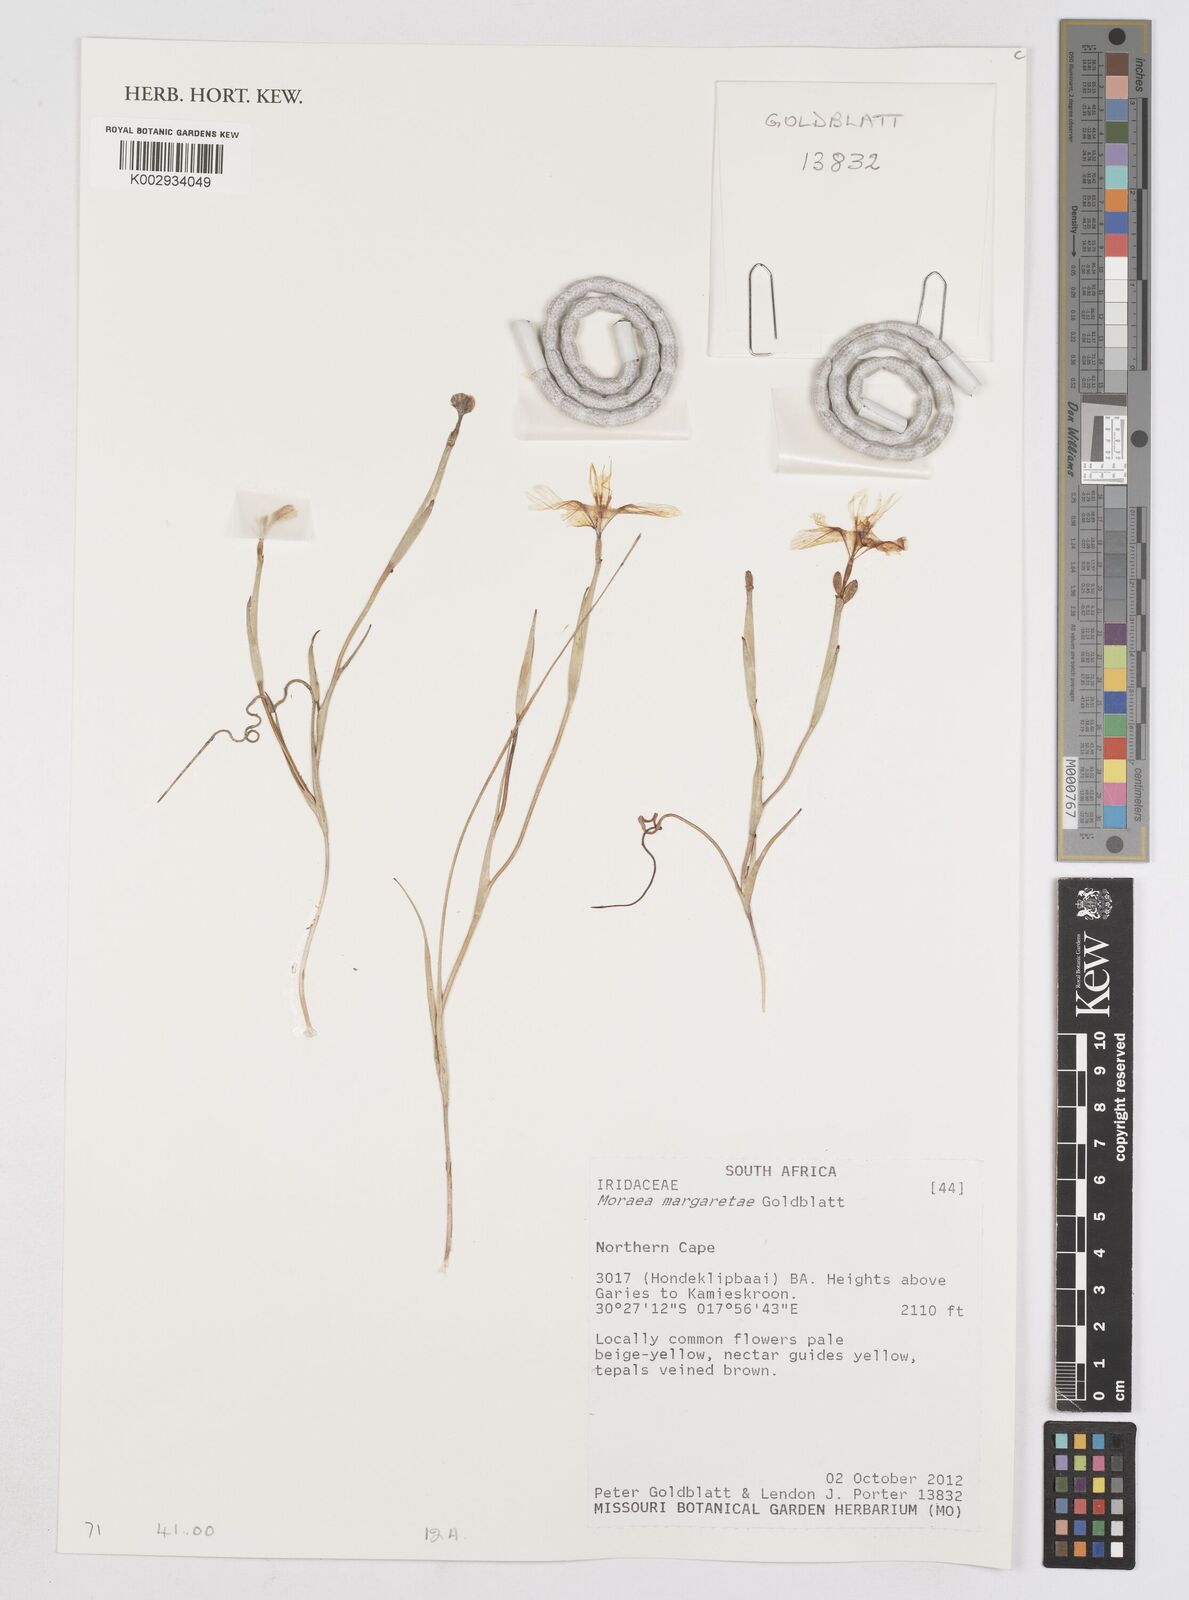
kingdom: Plantae
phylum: Tracheophyta
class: Liliopsida
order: Asparagales
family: Iridaceae
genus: Moraea
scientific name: Moraea margaretae
